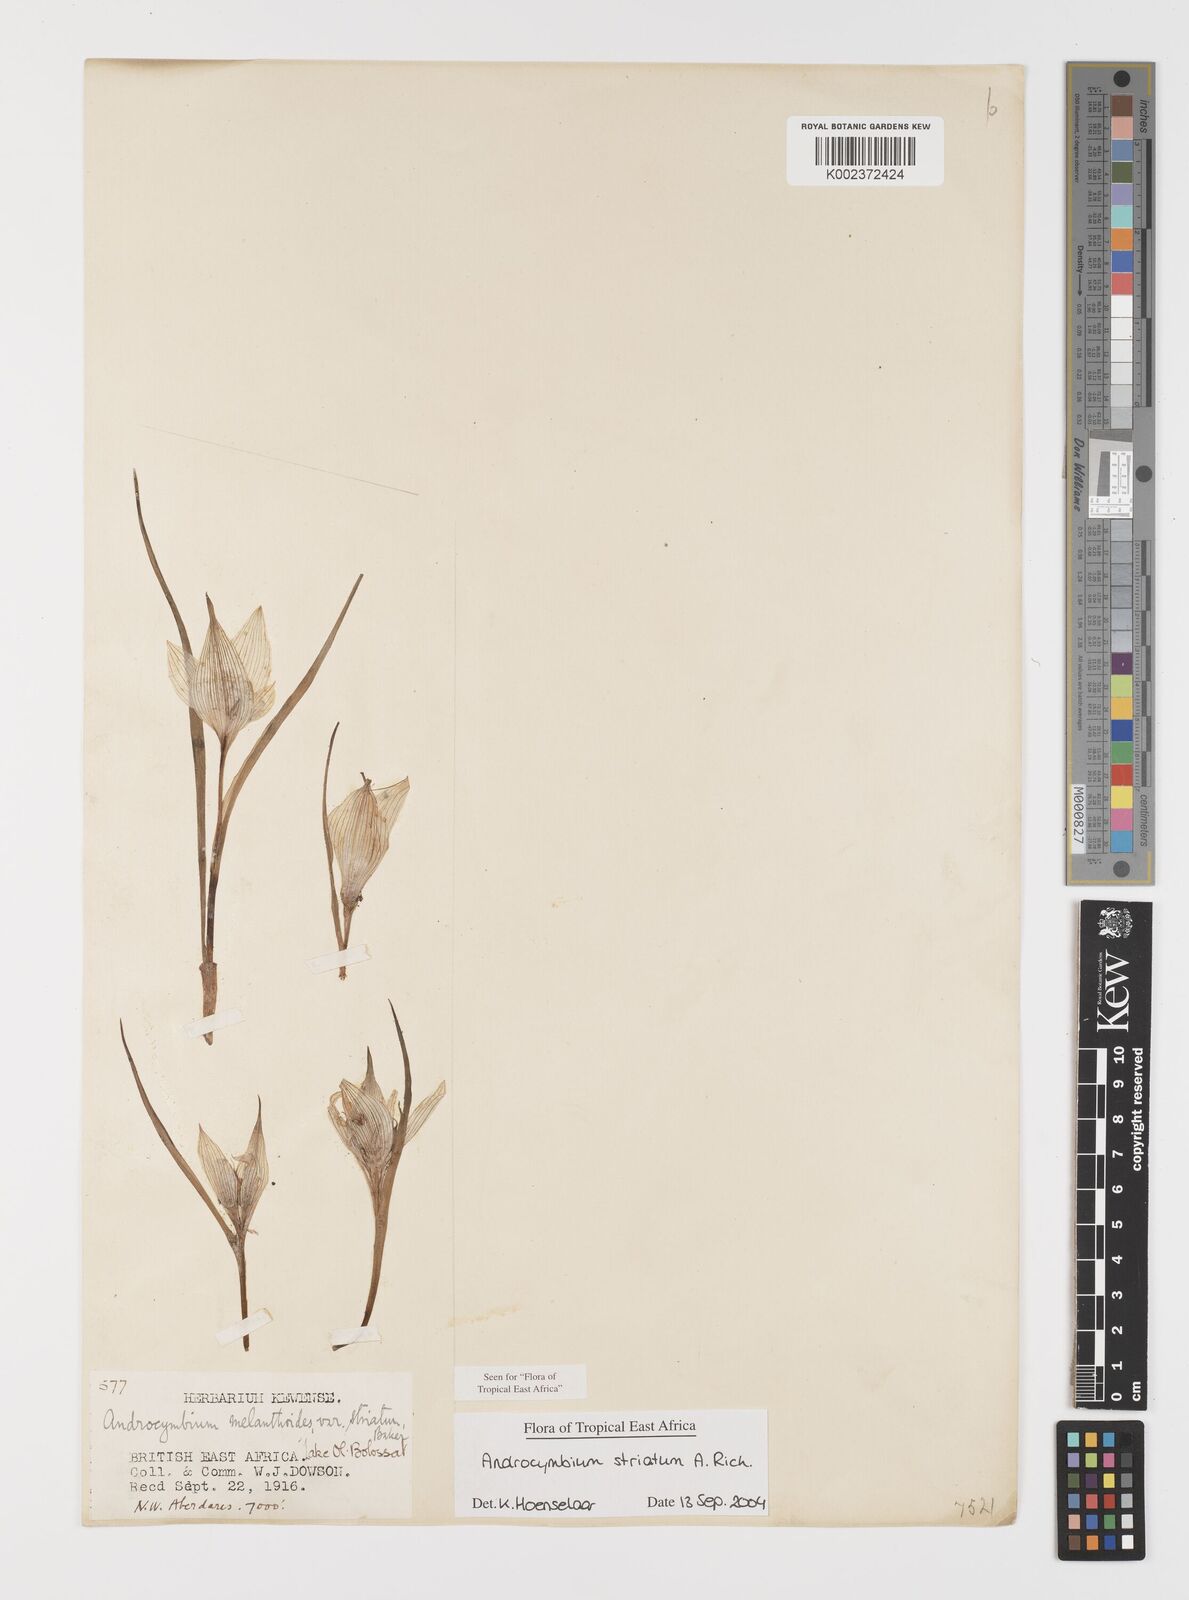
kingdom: Plantae
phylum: Tracheophyta
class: Liliopsida
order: Liliales
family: Colchicaceae
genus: Colchicum
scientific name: Colchicum striatum
